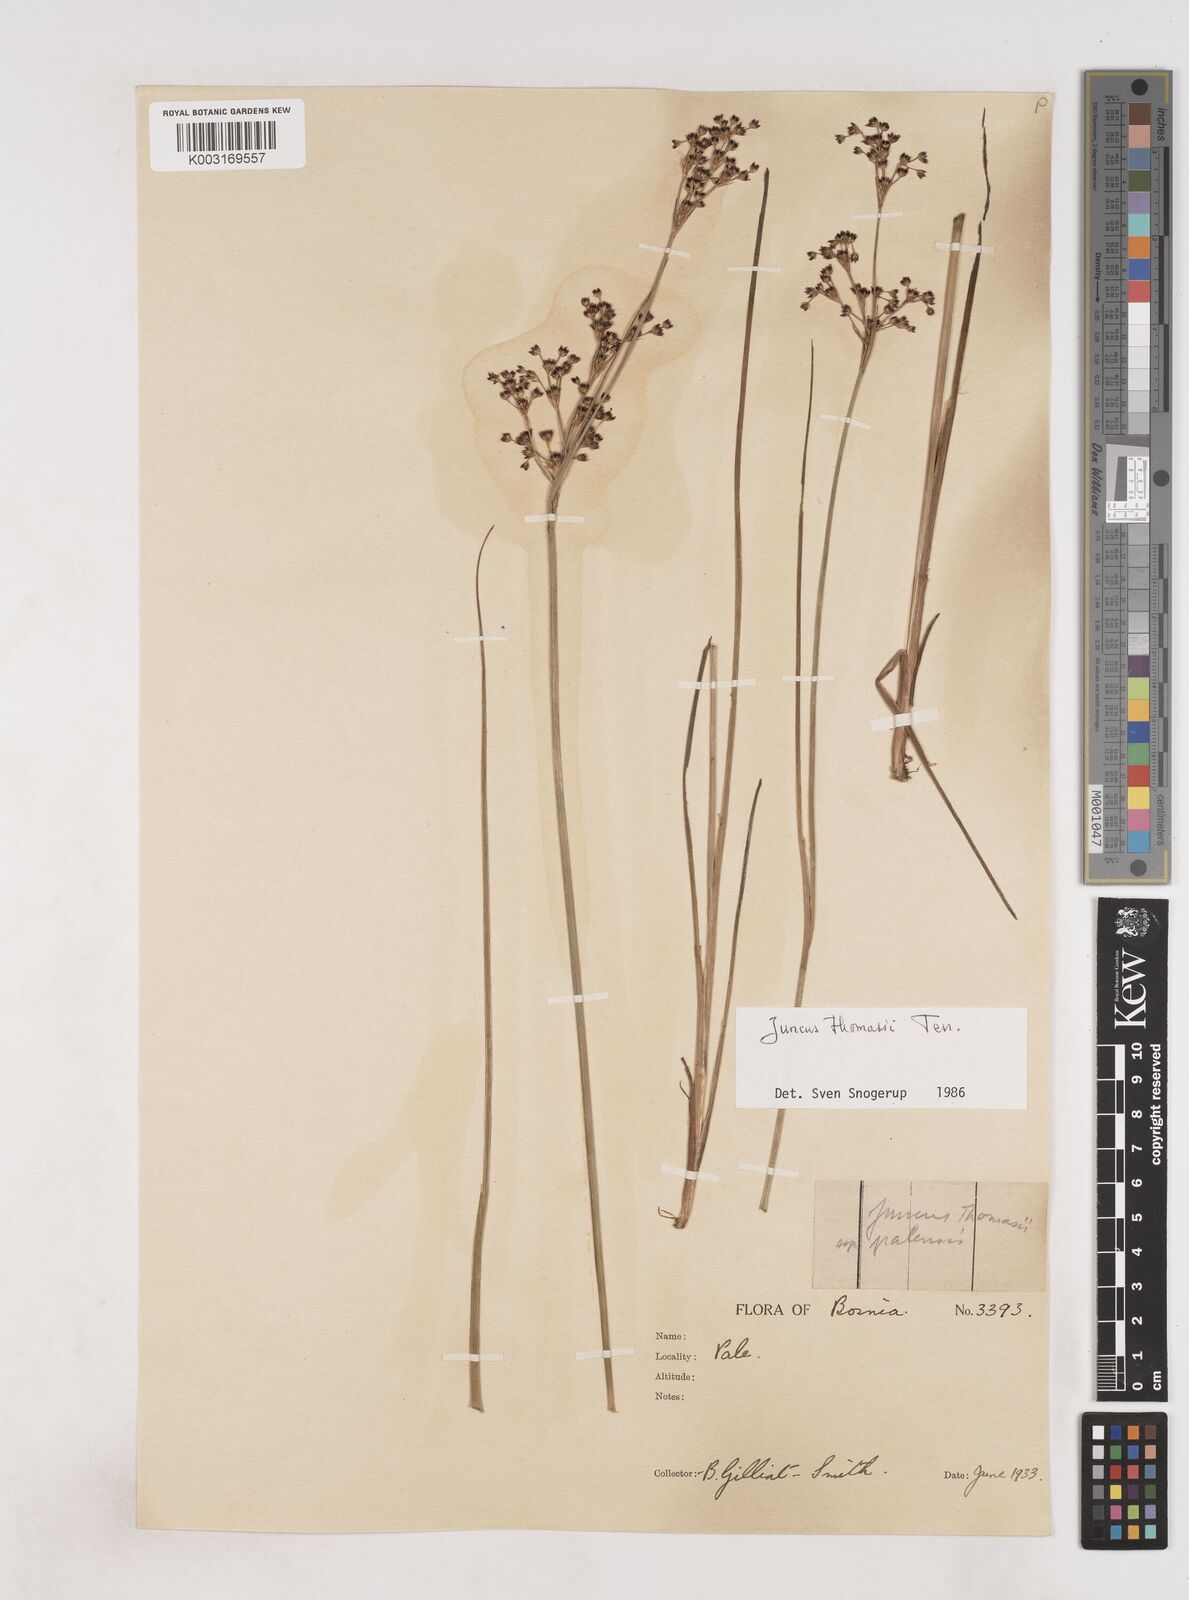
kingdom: Plantae
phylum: Tracheophyta
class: Liliopsida
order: Poales
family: Juncaceae
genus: Juncus
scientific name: Juncus thomasii
